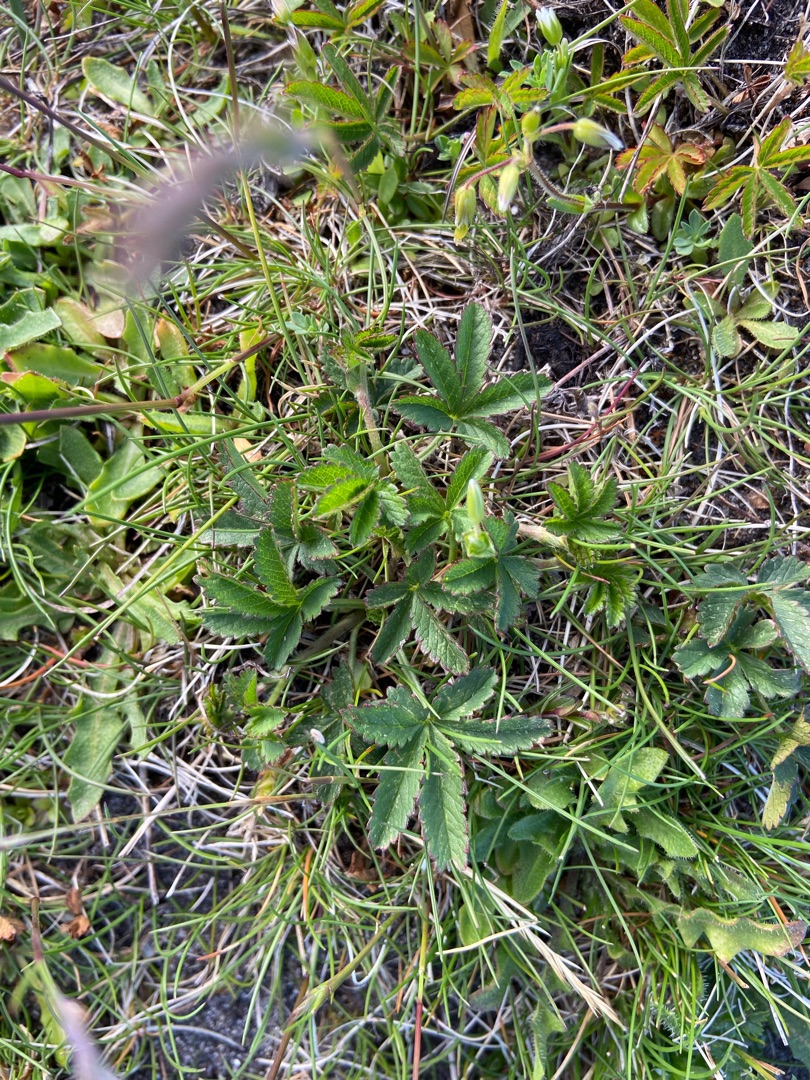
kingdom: Plantae
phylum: Tracheophyta
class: Magnoliopsida
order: Rosales
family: Rosaceae
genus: Potentilla
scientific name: Potentilla reptans
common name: Krybende potentil
